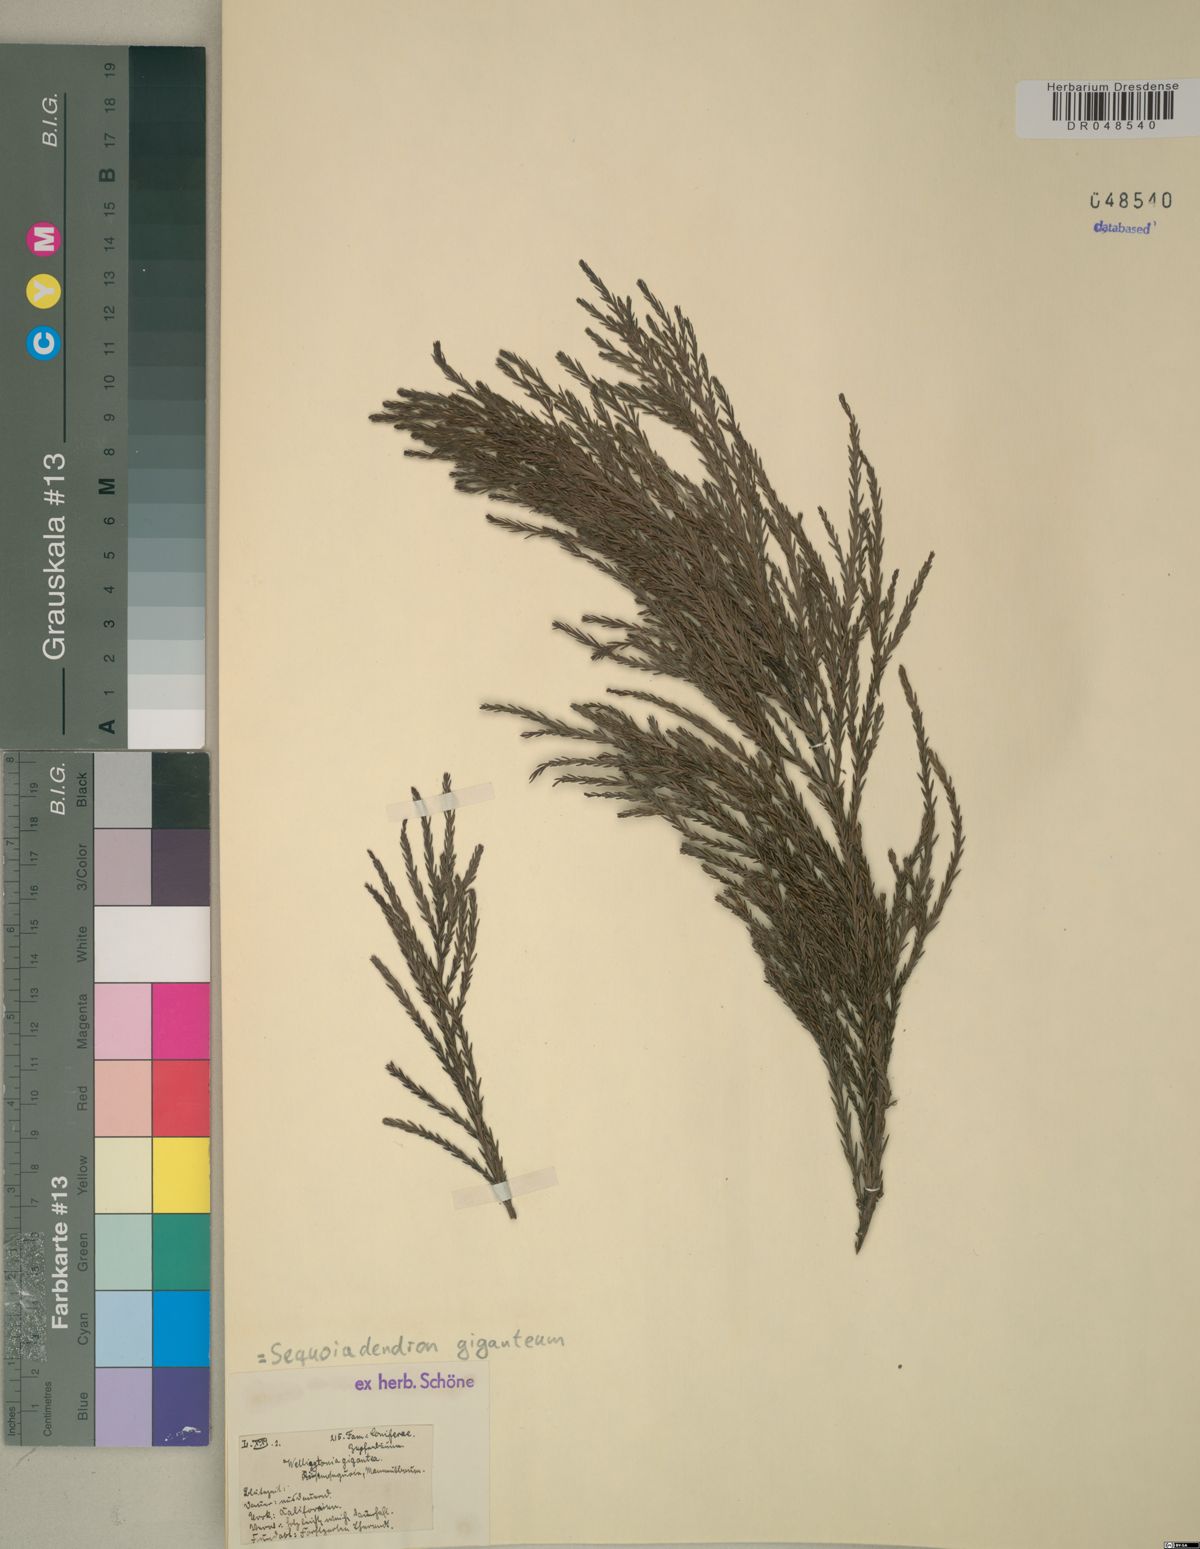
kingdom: Plantae
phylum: Tracheophyta
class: Pinopsida
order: Pinales
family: Cupressaceae
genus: Sequoiadendron
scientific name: Sequoiadendron giganteum
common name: Wellingtonia
